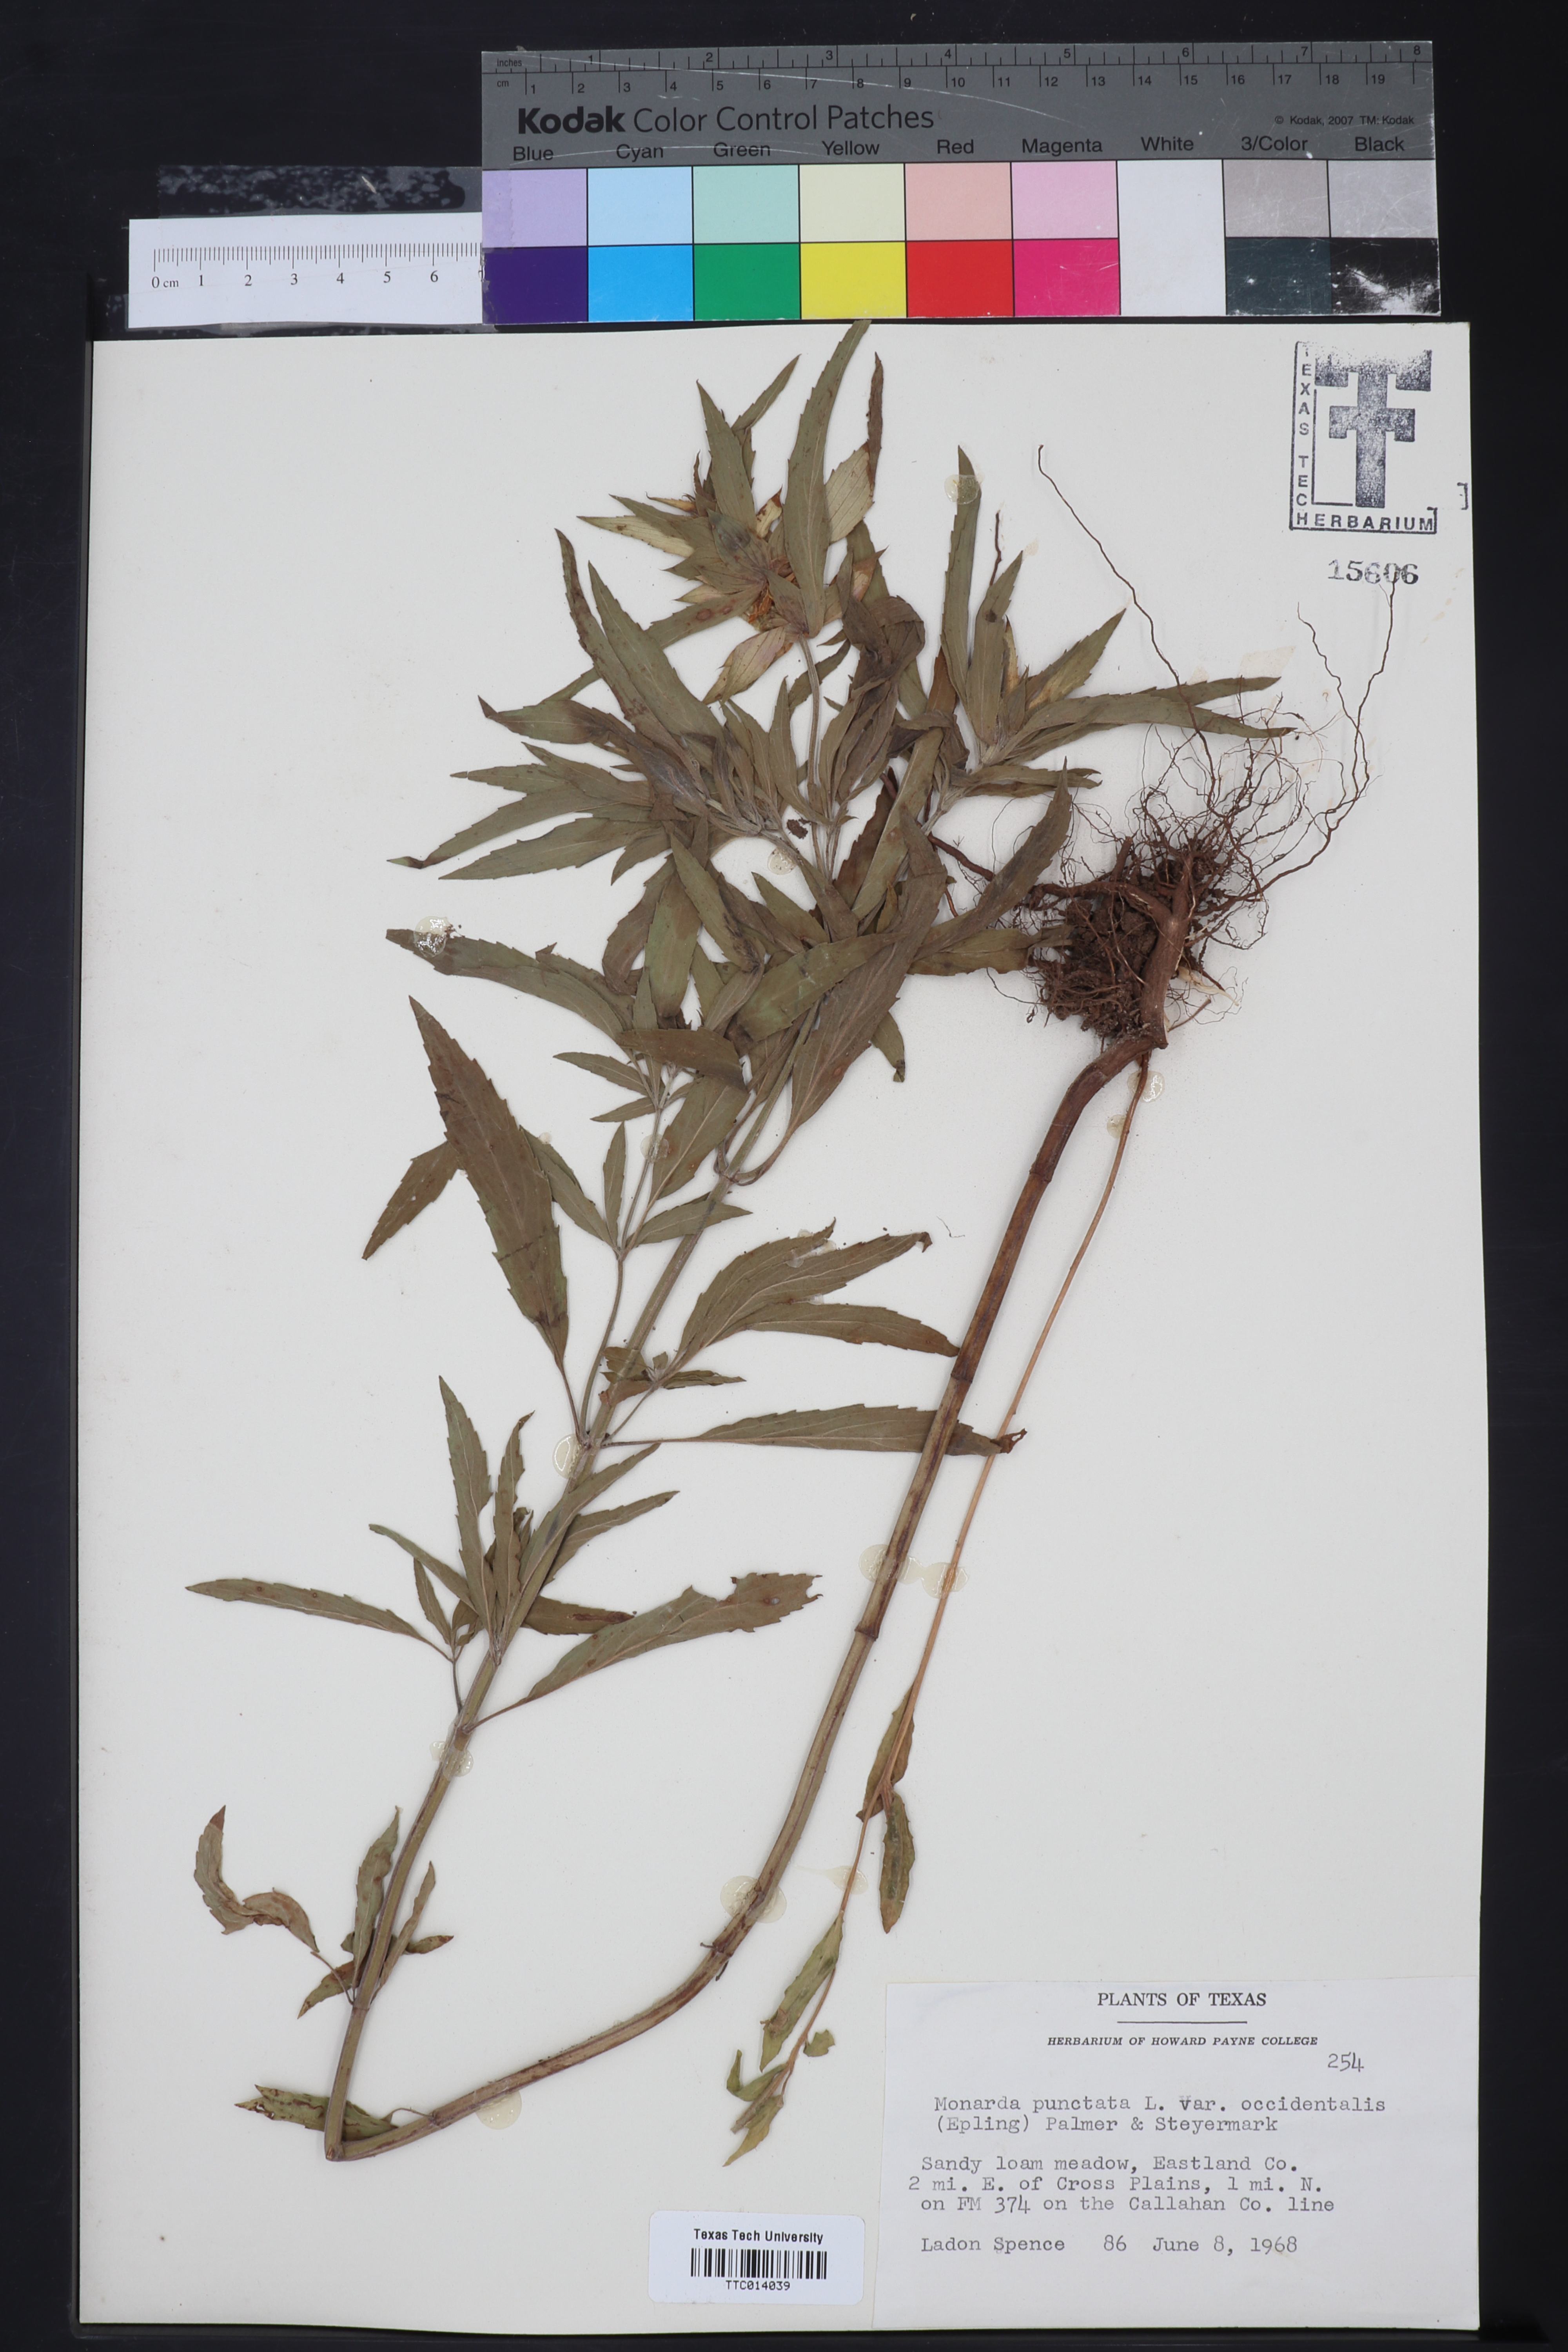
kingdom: Plantae
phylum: Tracheophyta
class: Magnoliopsida
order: Lamiales
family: Lamiaceae
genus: Monarda
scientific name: Monarda punctata
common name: Dotted monarda
